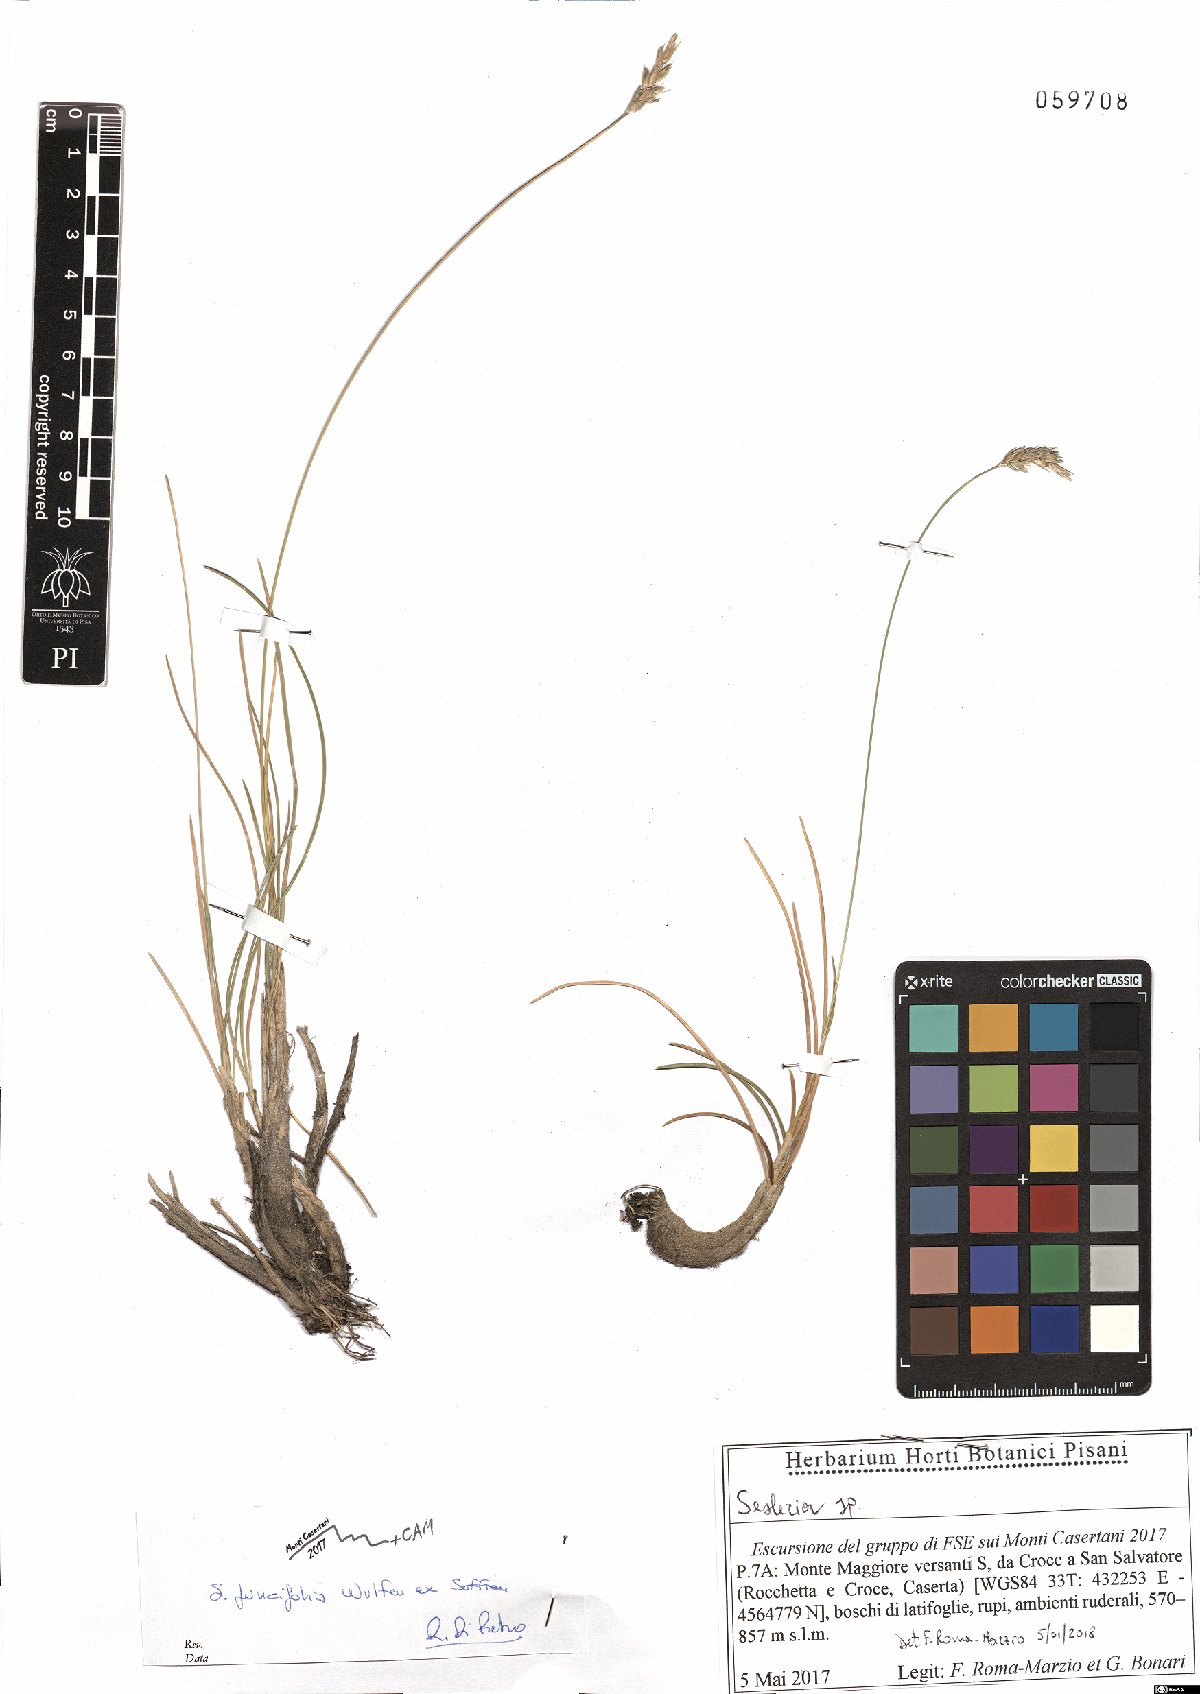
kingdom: Plantae
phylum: Tracheophyta
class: Liliopsida
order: Poales
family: Poaceae
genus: Sesleria
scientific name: Sesleria juncifolia
